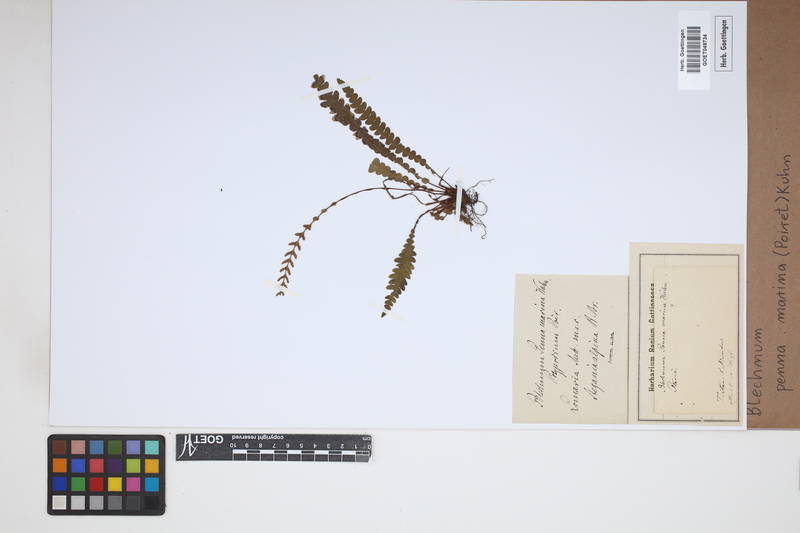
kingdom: Plantae
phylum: Tracheophyta
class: Polypodiopsida
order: Polypodiales
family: Blechnaceae
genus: Austroblechnum
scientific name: Austroblechnum penna-marina
